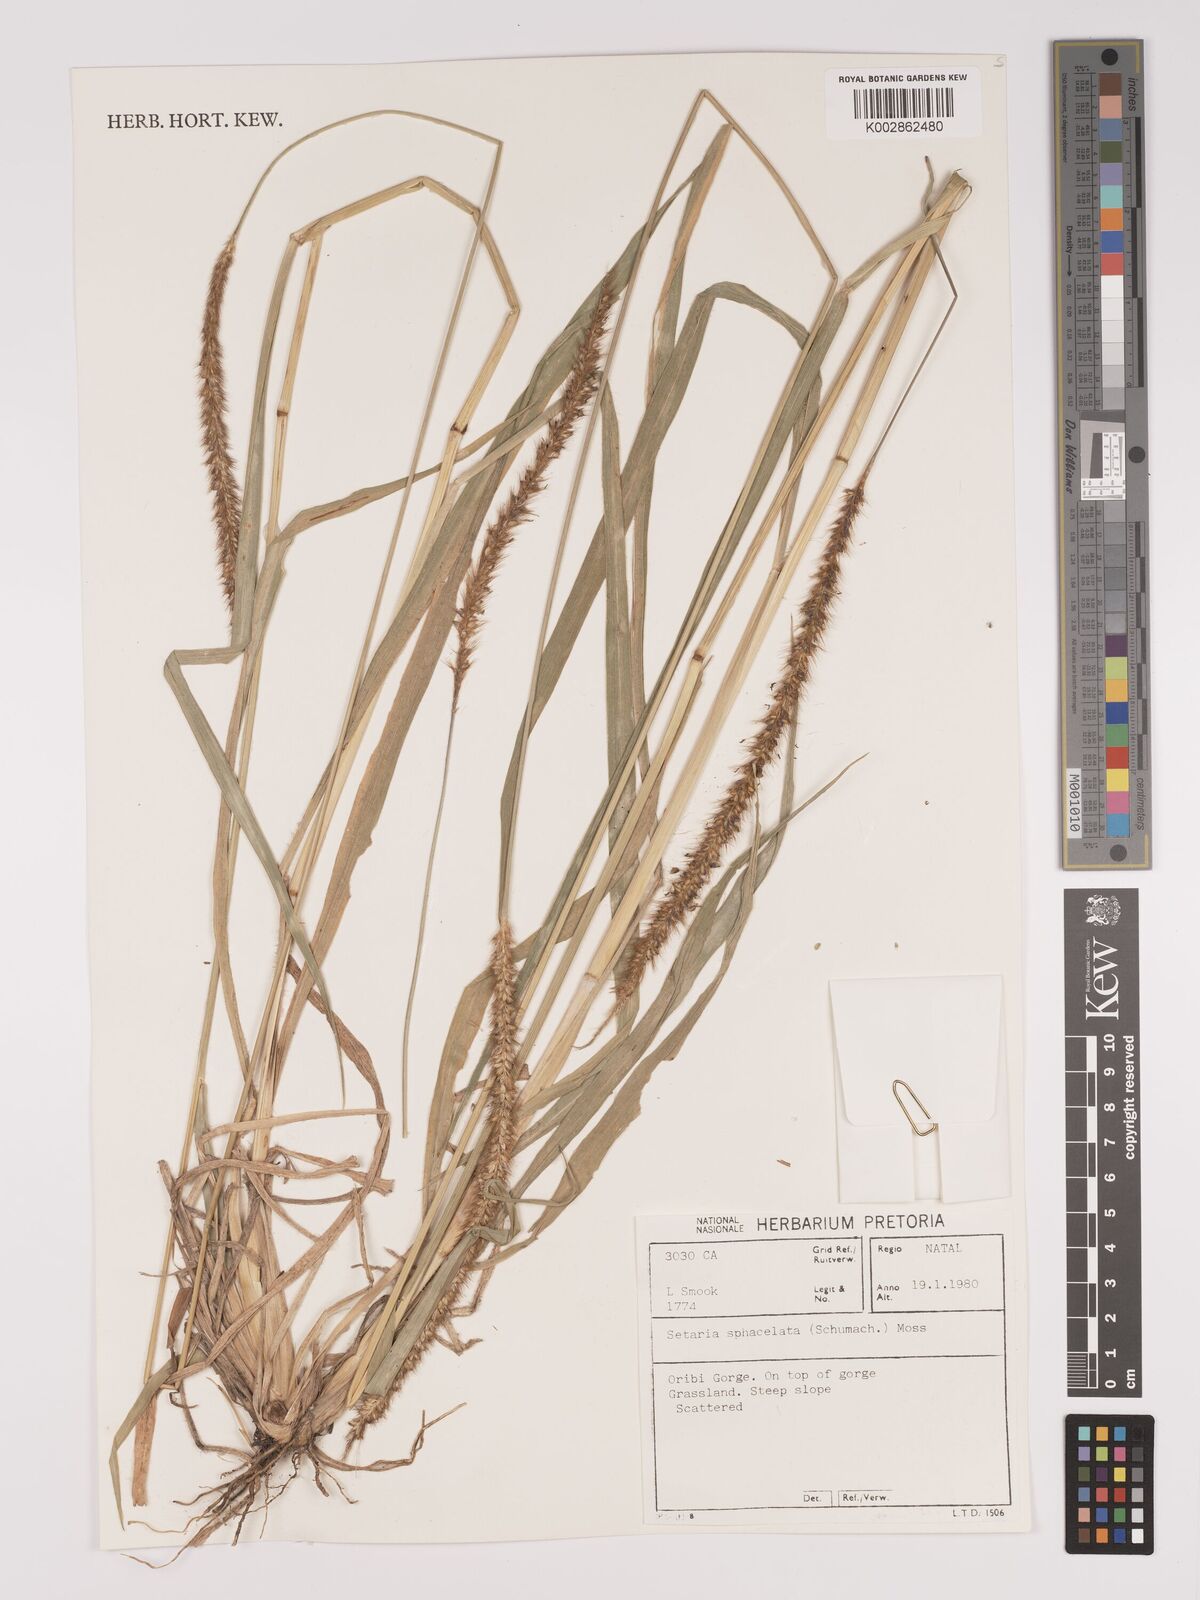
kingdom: Plantae
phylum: Tracheophyta
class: Liliopsida
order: Poales
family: Poaceae
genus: Setaria
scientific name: Setaria sphacelata
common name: African bristlegrass
